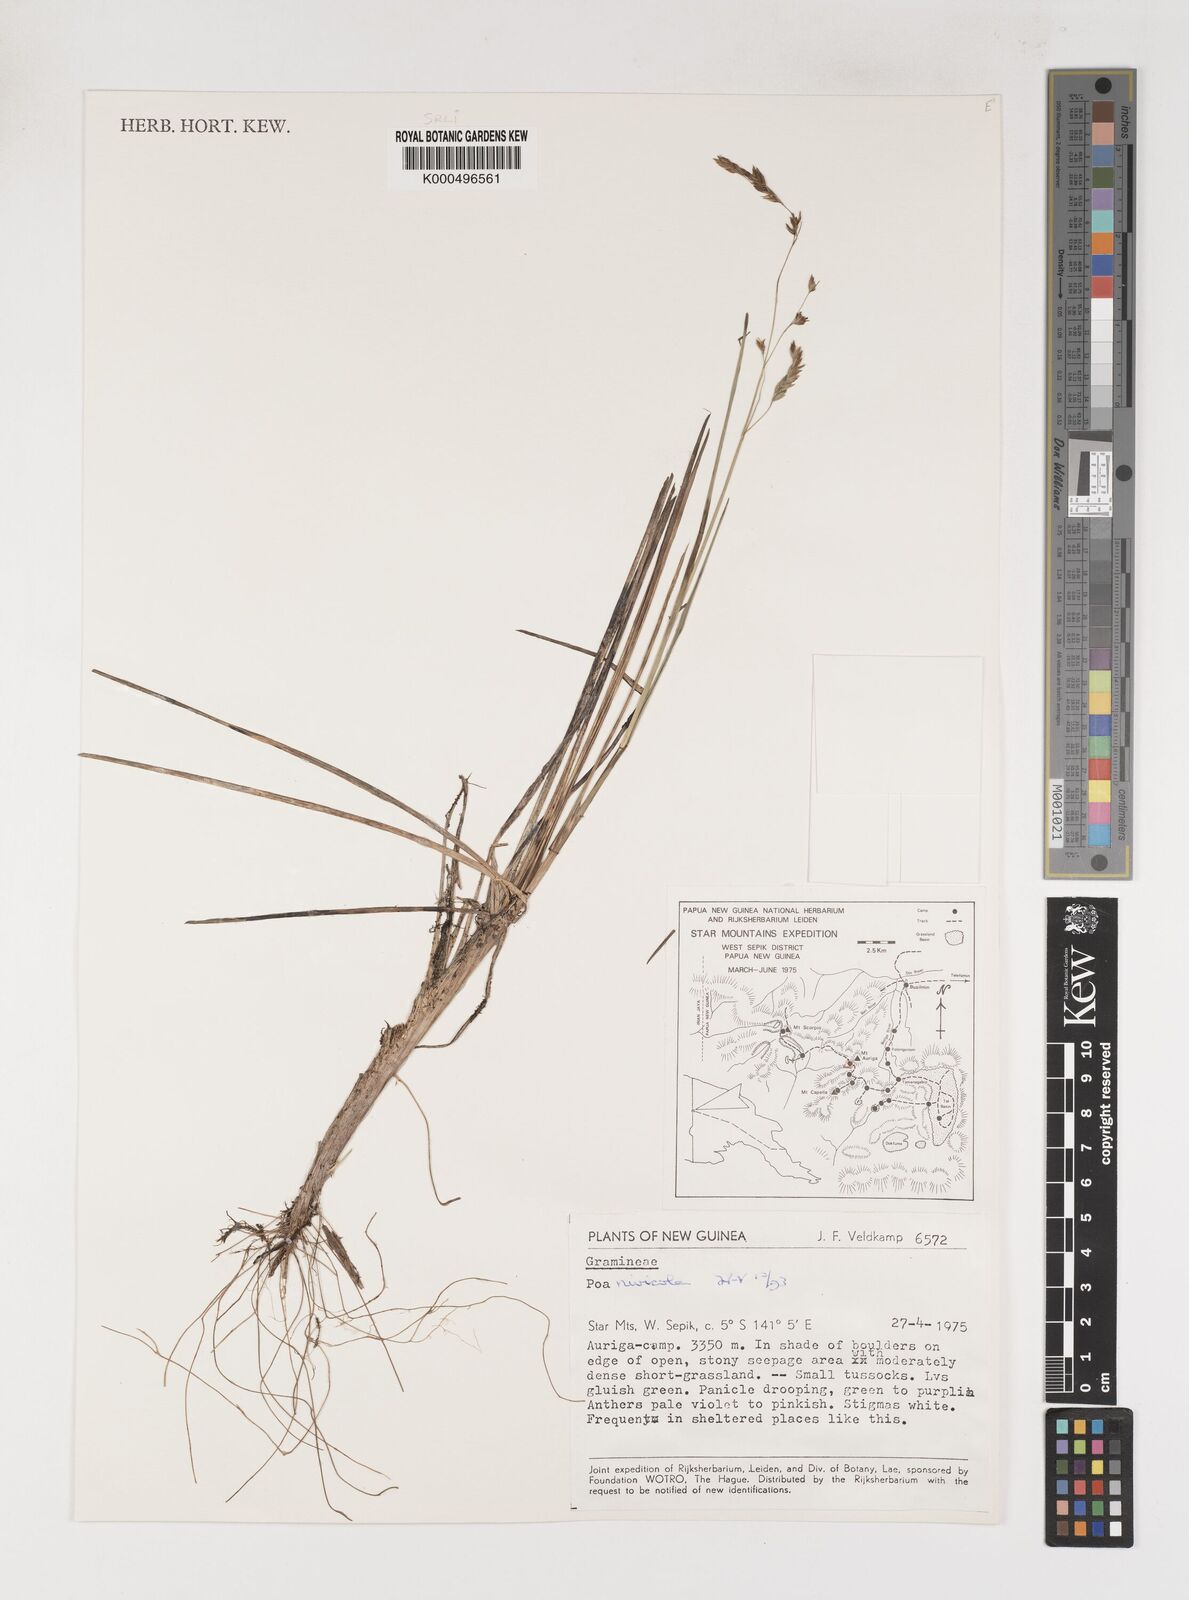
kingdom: Plantae
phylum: Tracheophyta
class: Liliopsida
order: Poales
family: Poaceae
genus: Poa
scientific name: Poa
